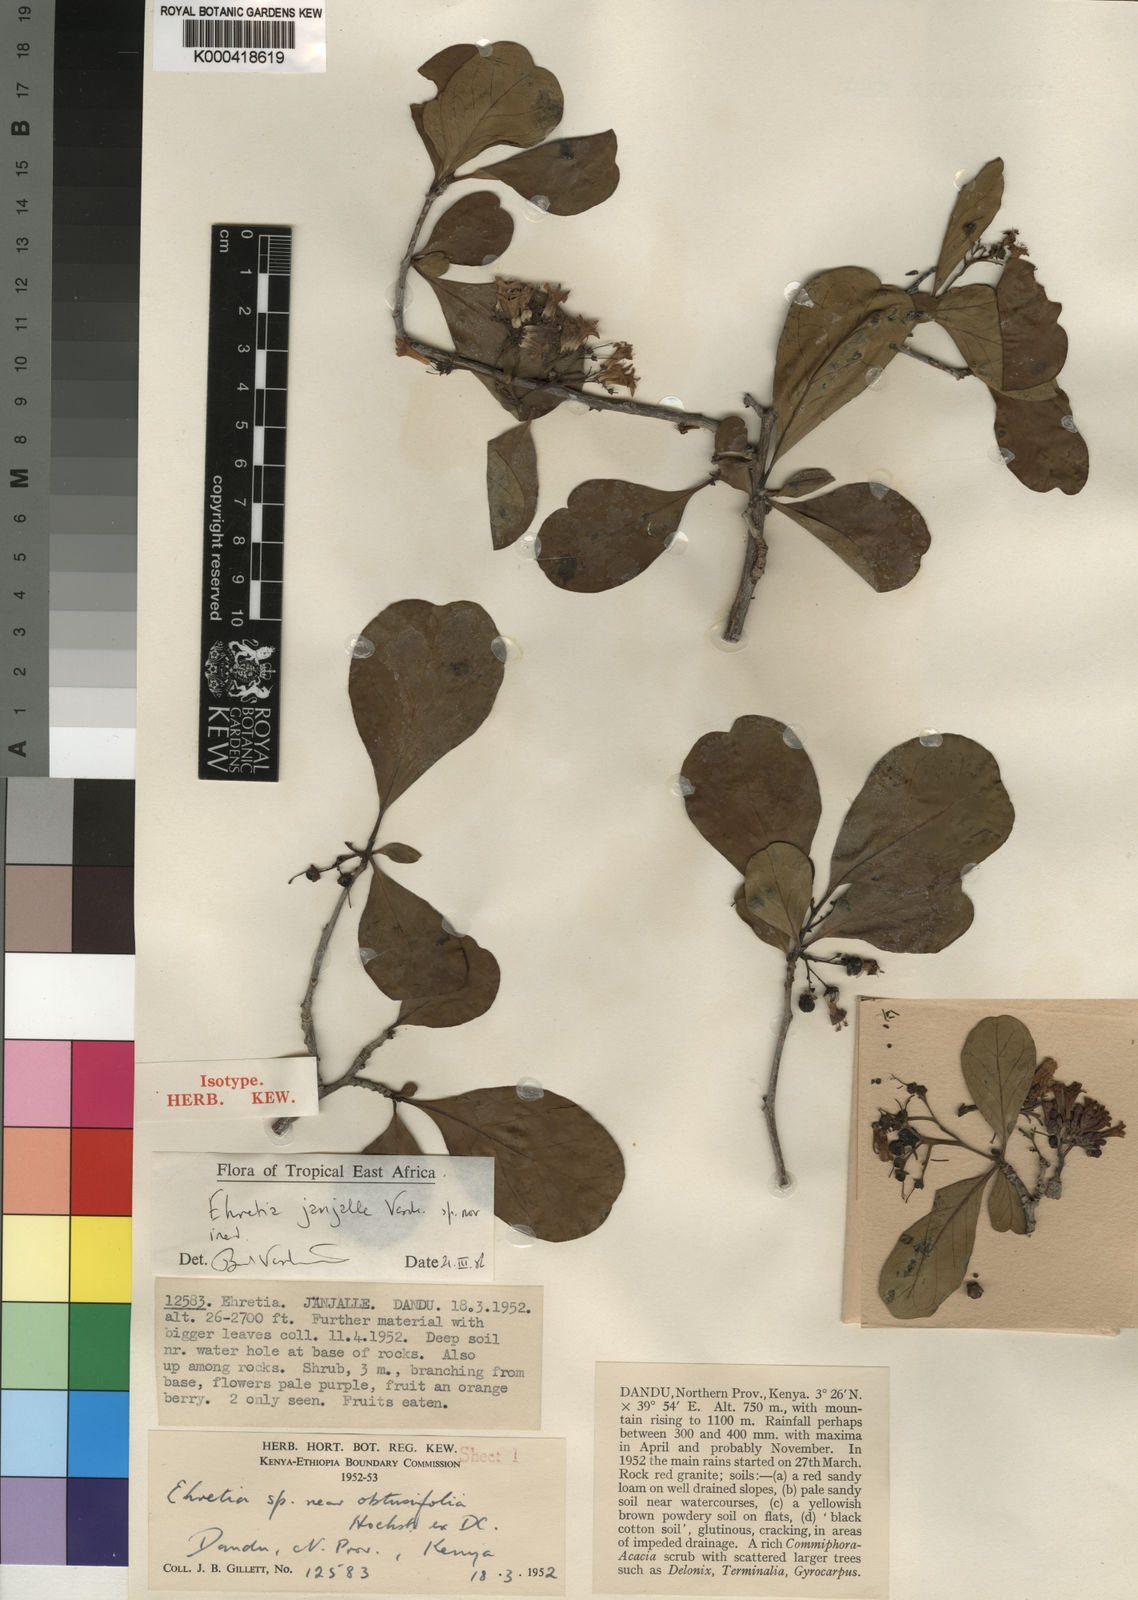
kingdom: Plantae
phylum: Tracheophyta
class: Magnoliopsida
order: Boraginales
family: Ehretiaceae
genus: Ehretia
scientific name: Ehretia janjalle
